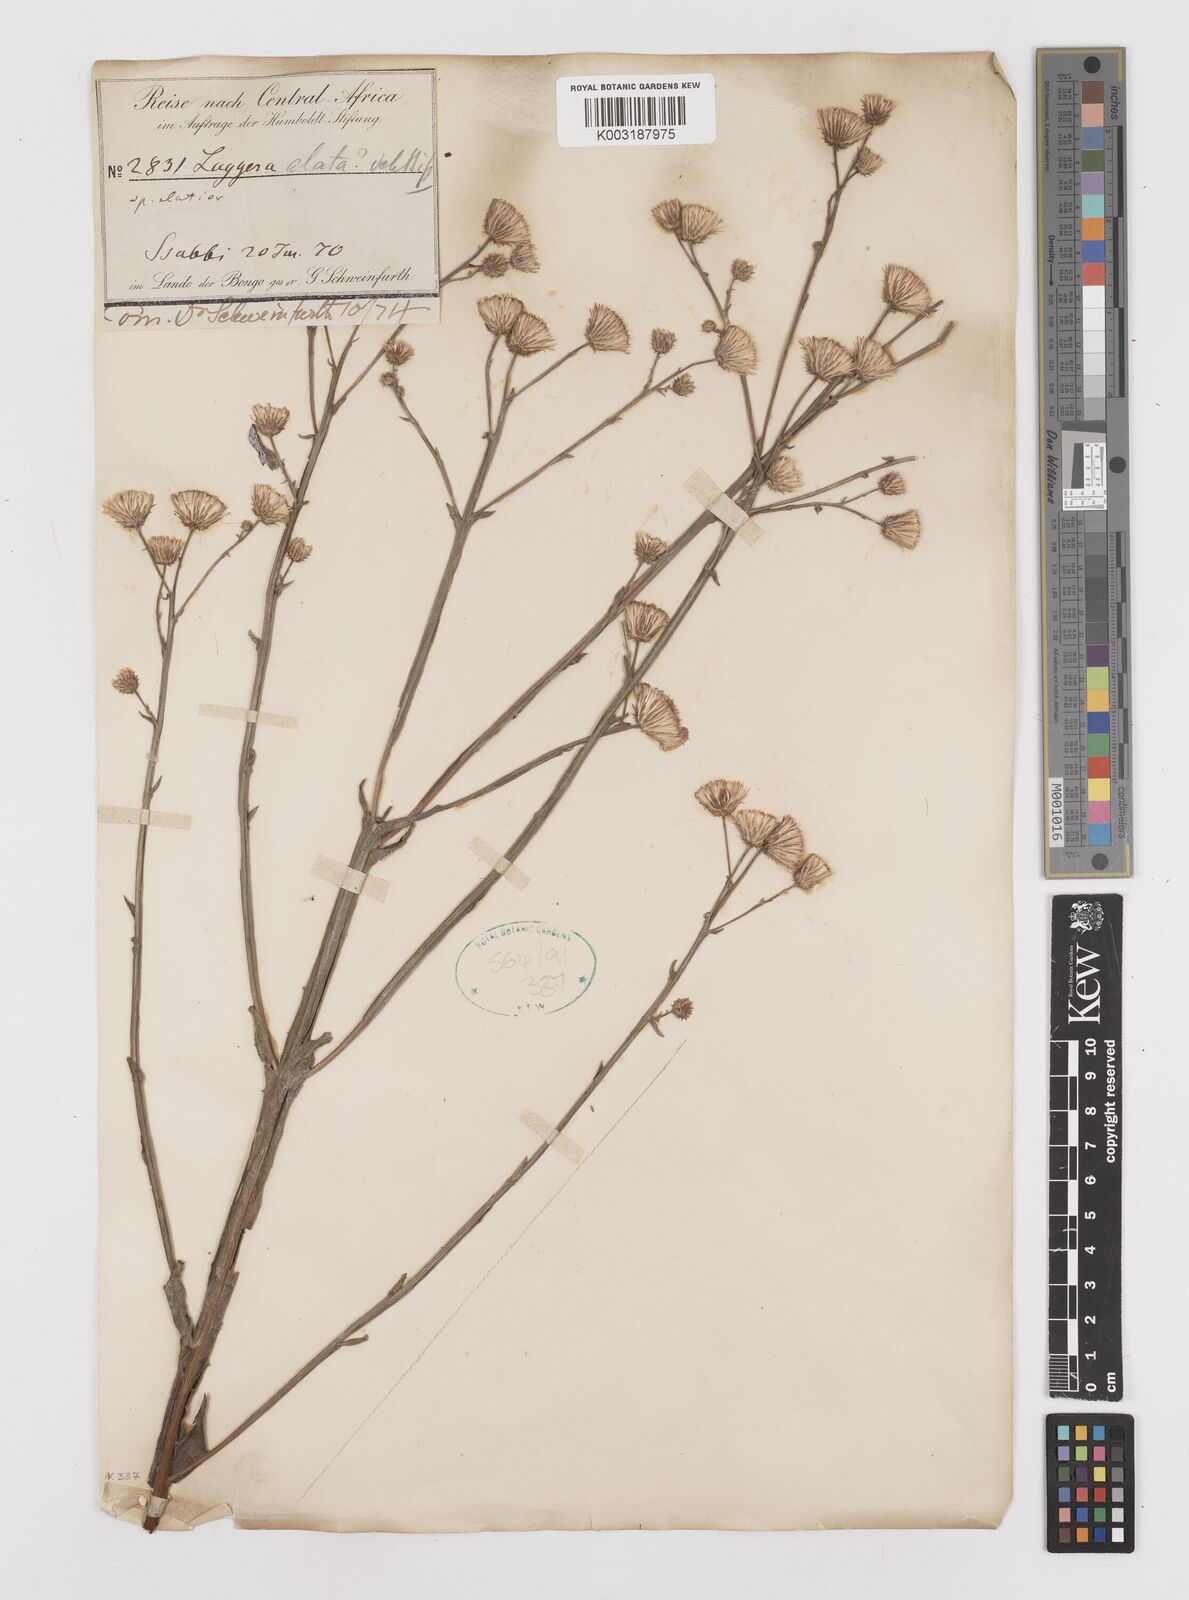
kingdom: Plantae
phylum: Tracheophyta
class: Magnoliopsida
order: Asterales
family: Asteraceae
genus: Laggera
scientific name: Laggera crispata
